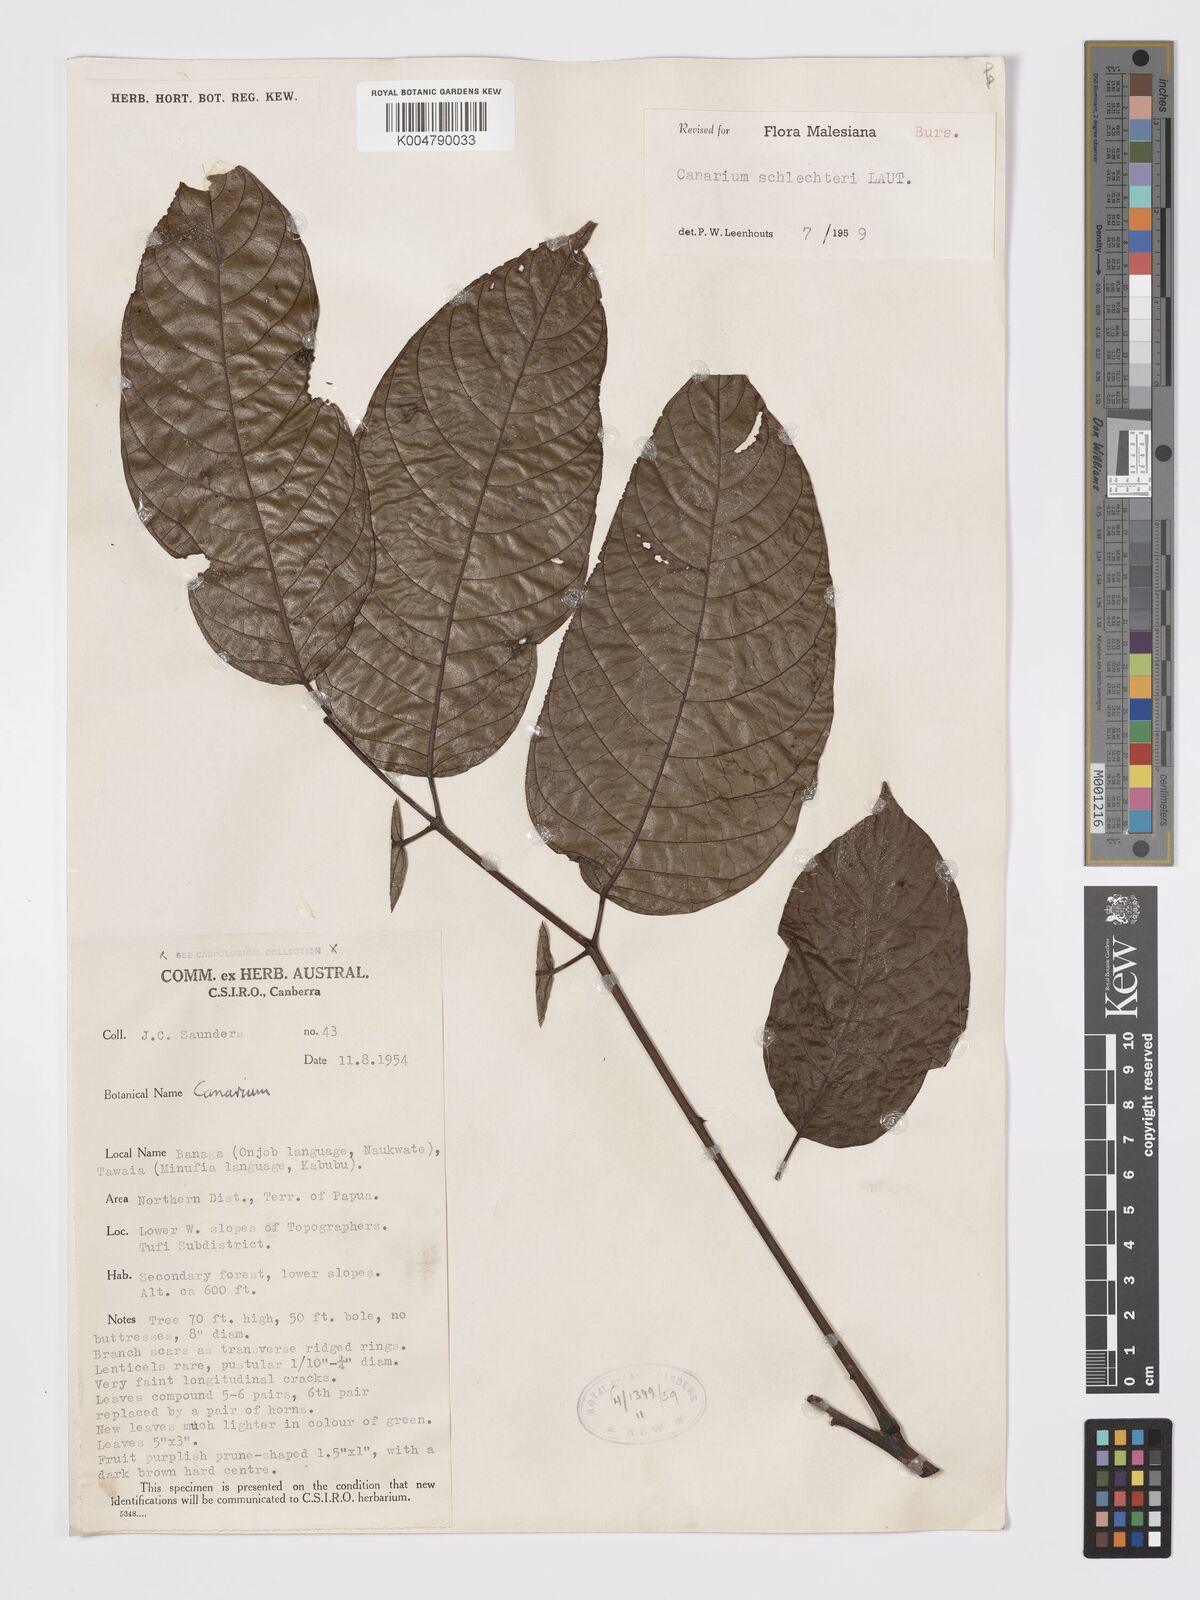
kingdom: Plantae
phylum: Tracheophyta
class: Magnoliopsida
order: Sapindales
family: Burseraceae
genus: Canarium
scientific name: Canarium schlechteri
